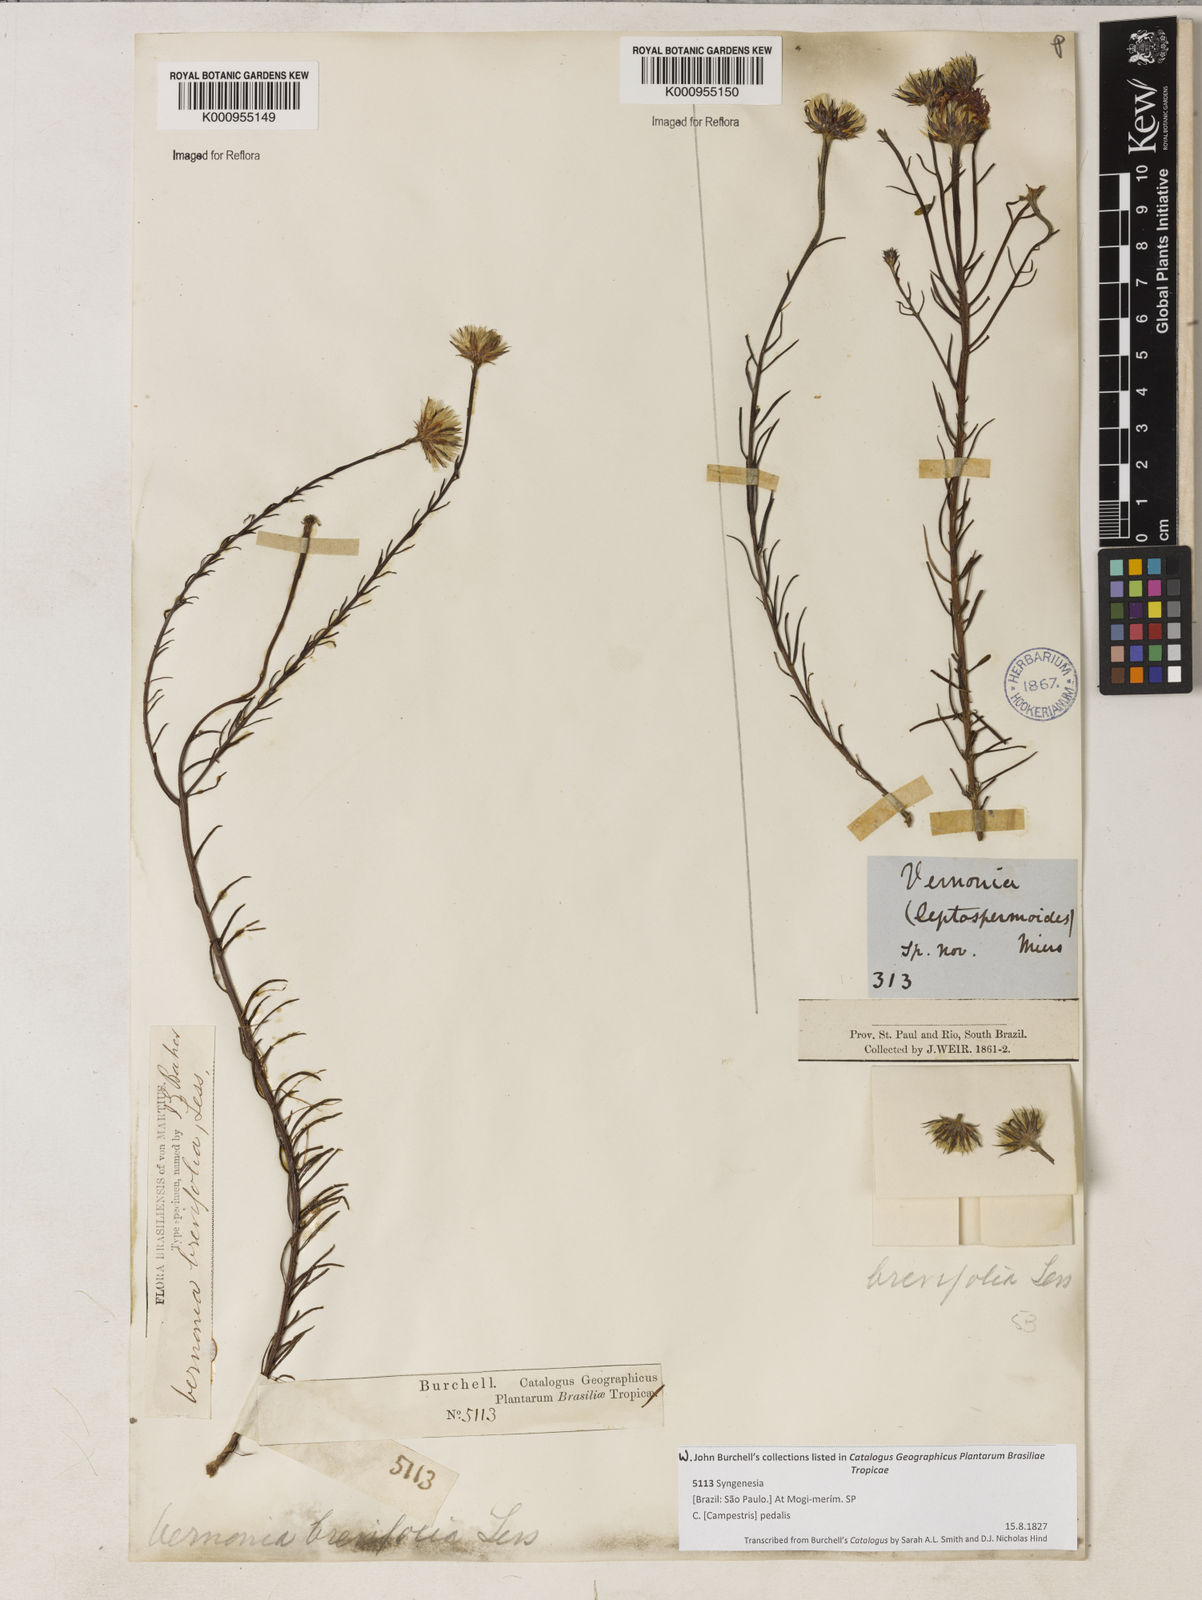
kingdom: Plantae
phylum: Tracheophyta
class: Magnoliopsida
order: Asterales
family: Asteraceae
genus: Lessingianthus
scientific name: Lessingianthus brevifolius
